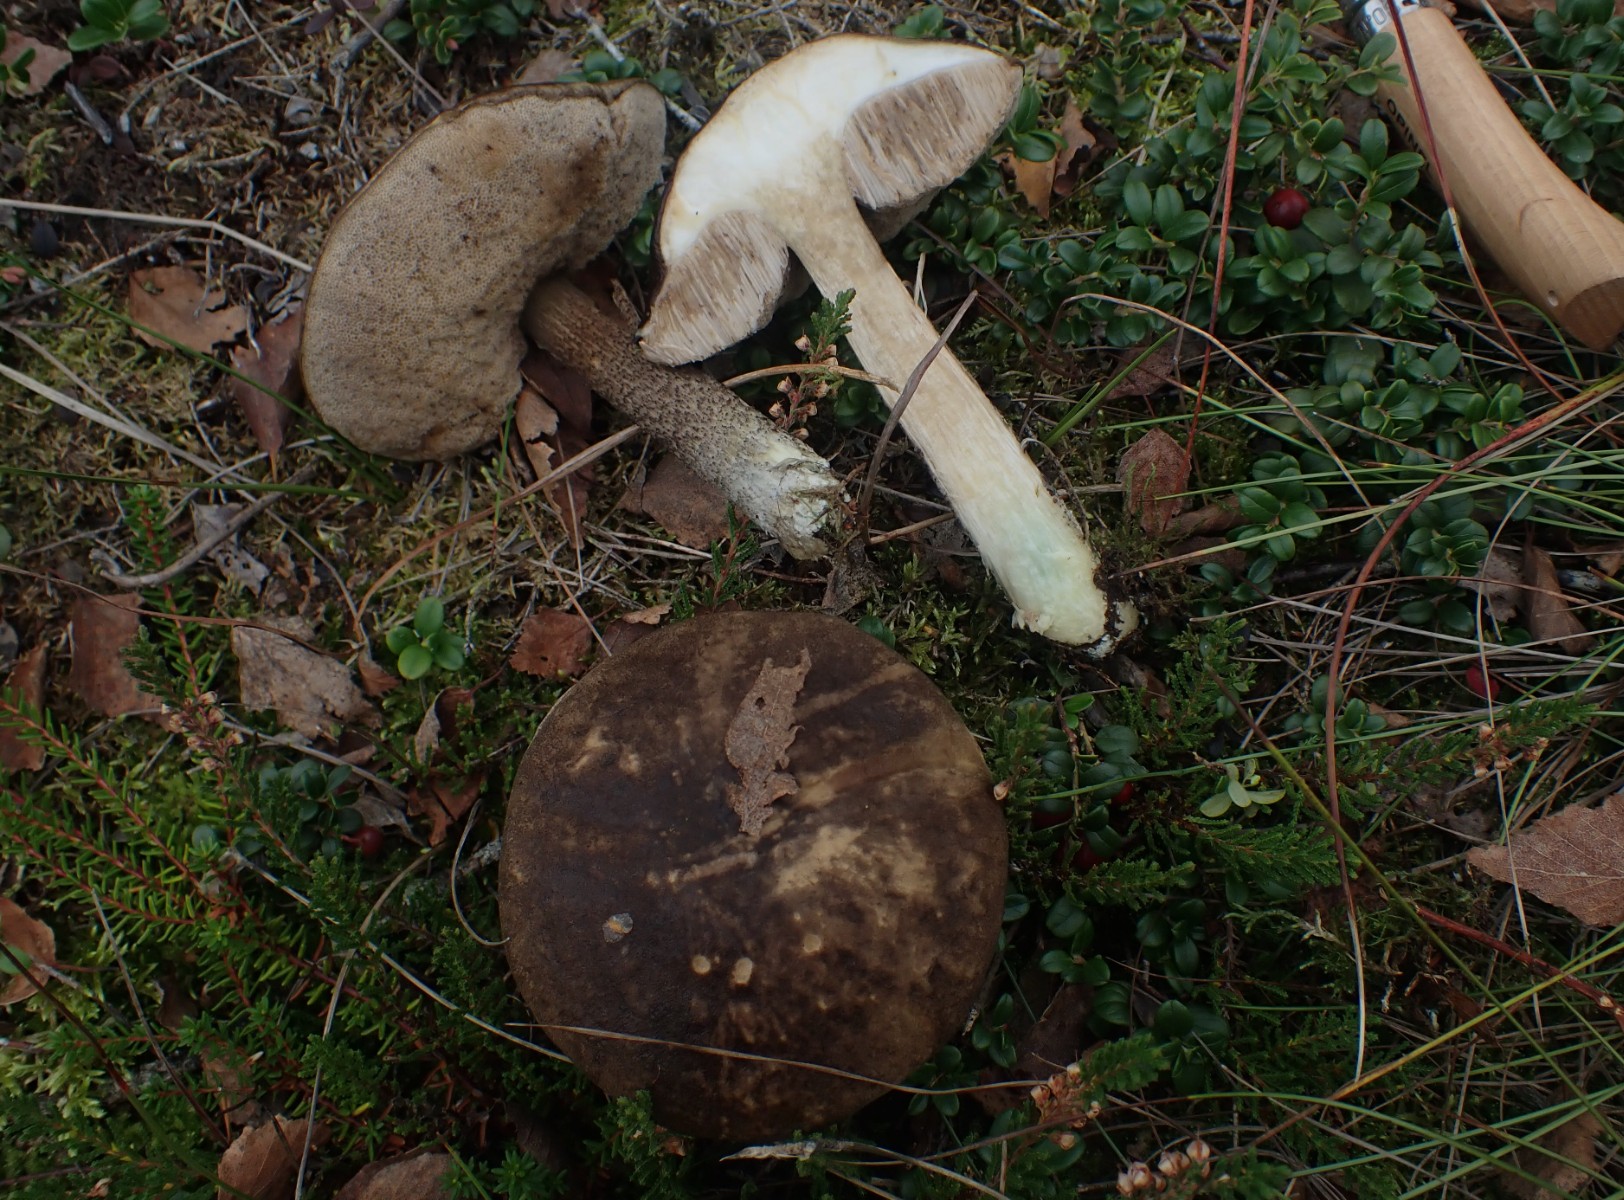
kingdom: Fungi
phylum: Basidiomycota
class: Agaricomycetes
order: Boletales
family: Boletaceae
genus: Leccinum
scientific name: Leccinum variicolor
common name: flammet skælrørhat
